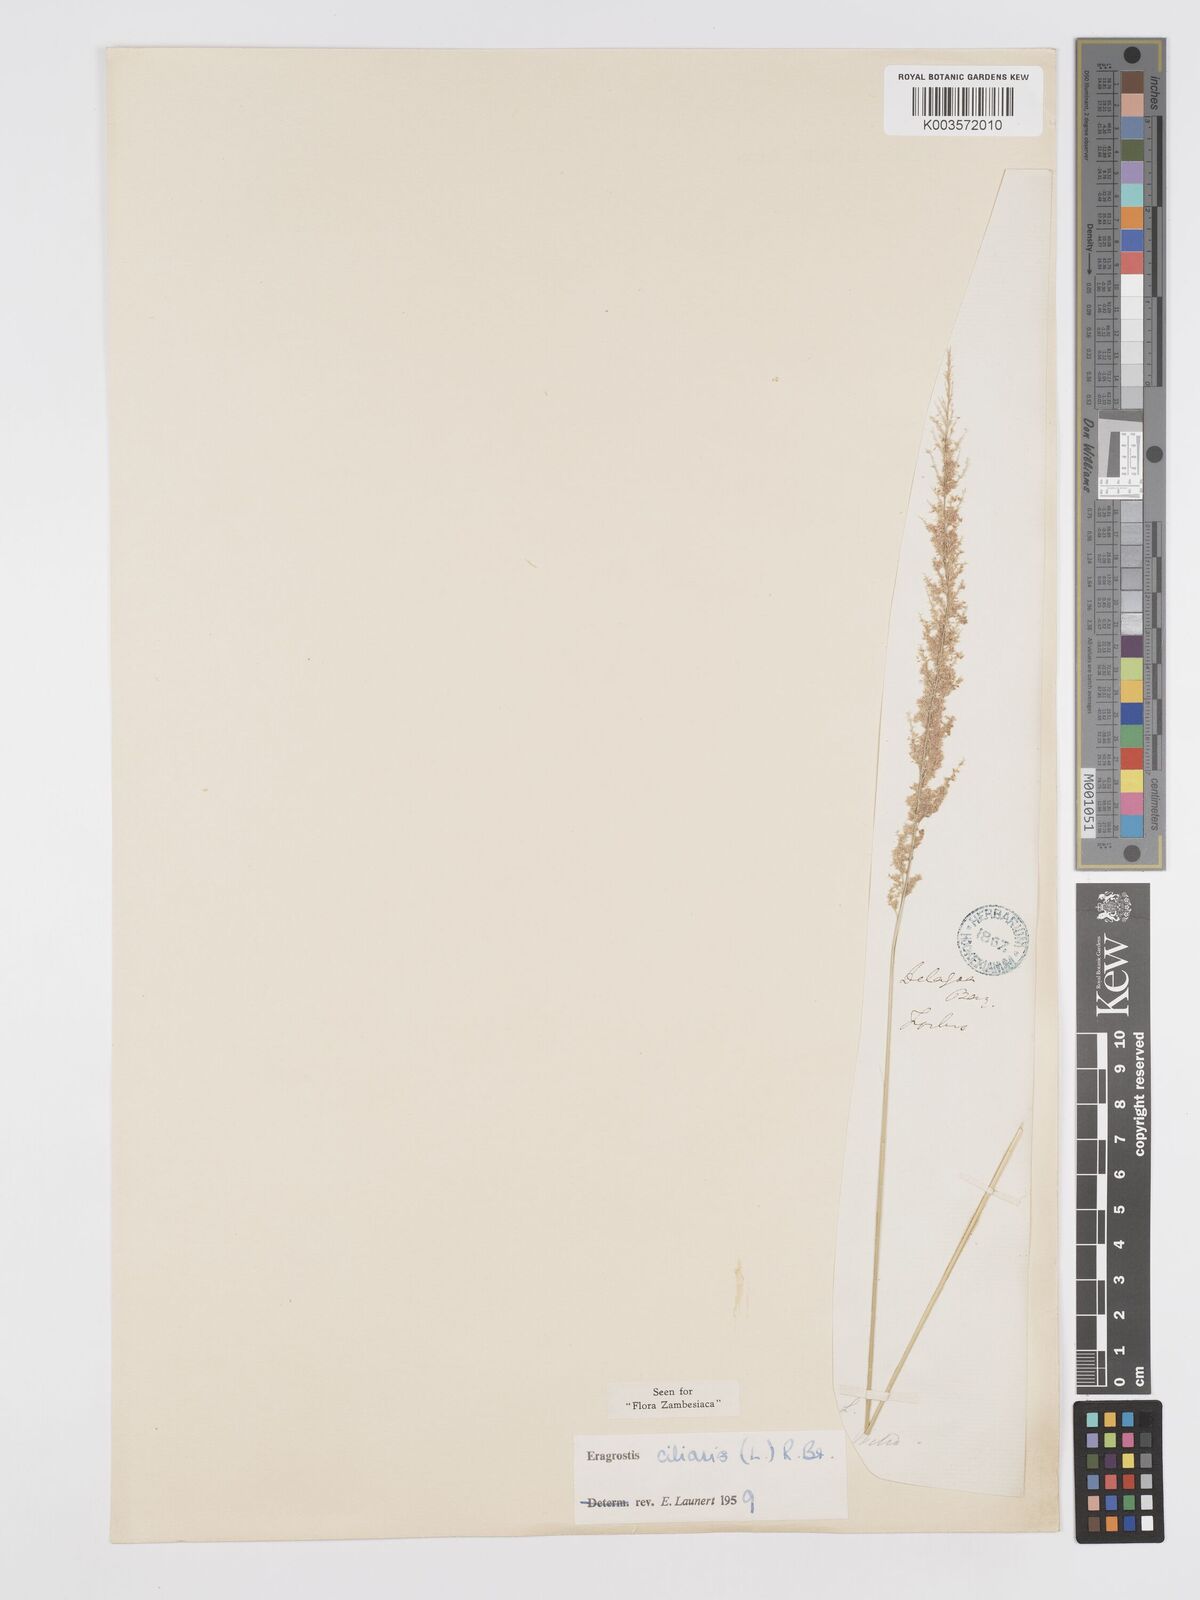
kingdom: Plantae
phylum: Tracheophyta
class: Liliopsida
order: Poales
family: Poaceae
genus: Eragrostis
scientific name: Eragrostis ciliaris
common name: Gophertail lovegrass
